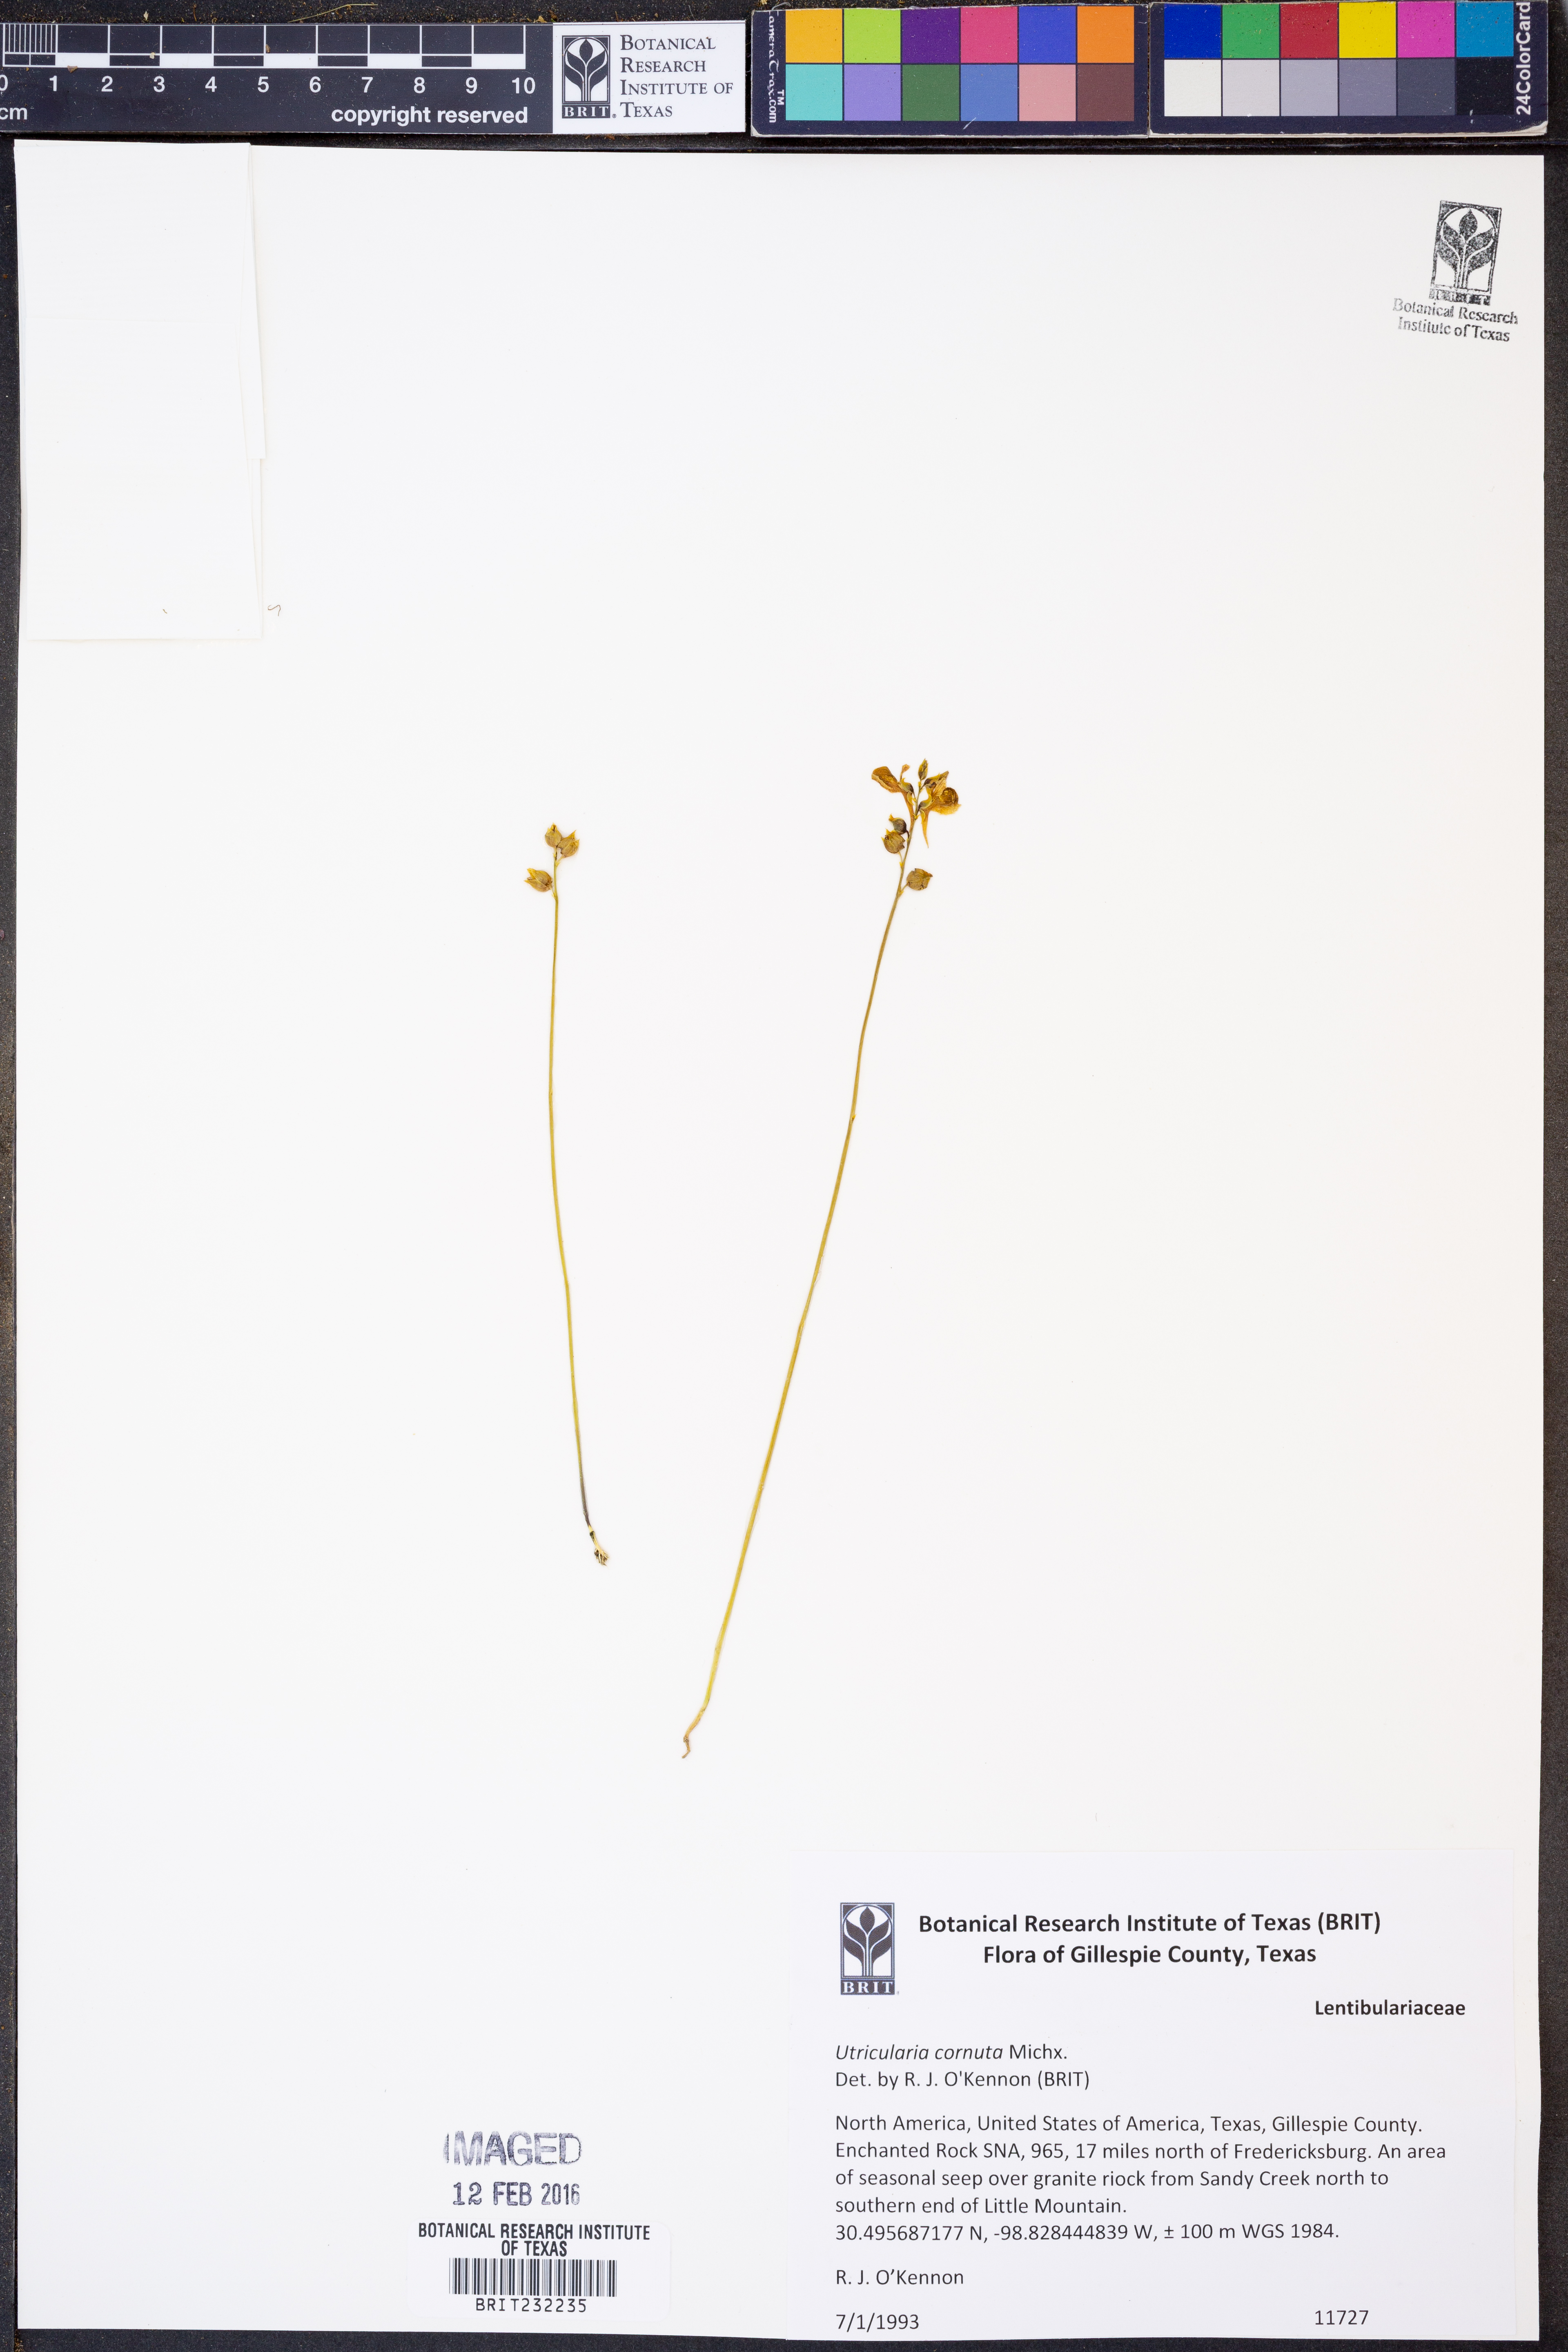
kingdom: Plantae
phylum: Tracheophyta
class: Magnoliopsida
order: Lamiales
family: Lentibulariaceae
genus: Utricularia
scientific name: Utricularia cornuta
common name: Horned bladderwort
